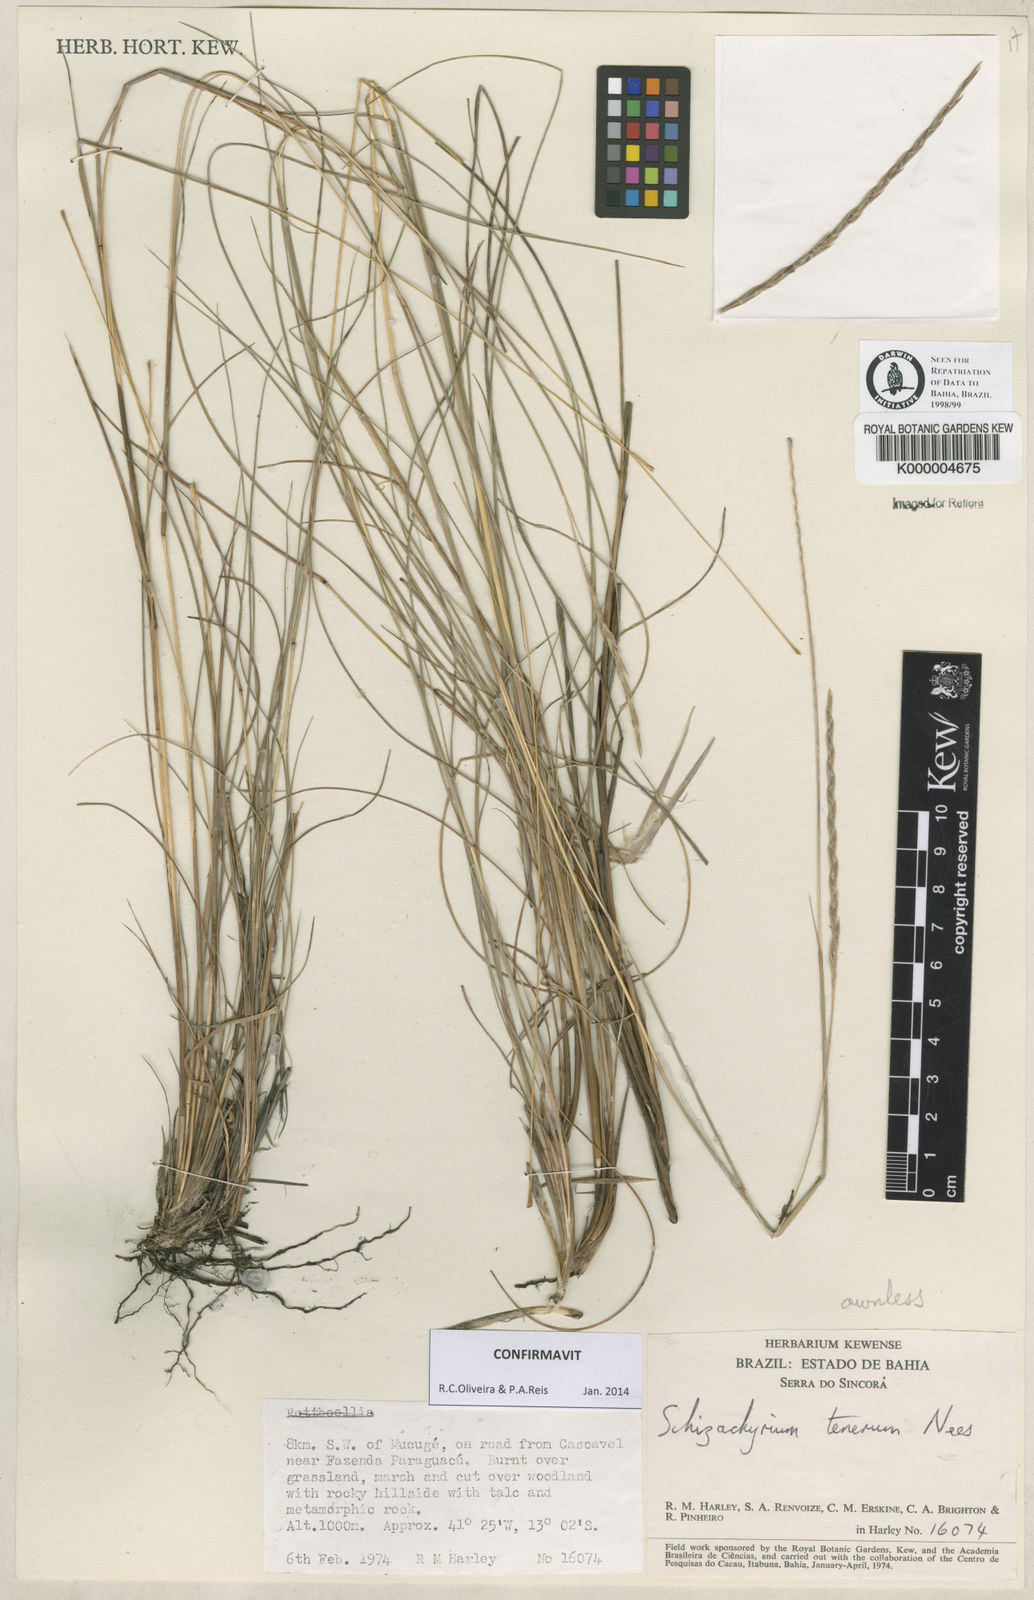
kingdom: Plantae
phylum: Tracheophyta
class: Liliopsida
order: Poales
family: Poaceae
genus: Andropogon
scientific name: Andropogon tener
